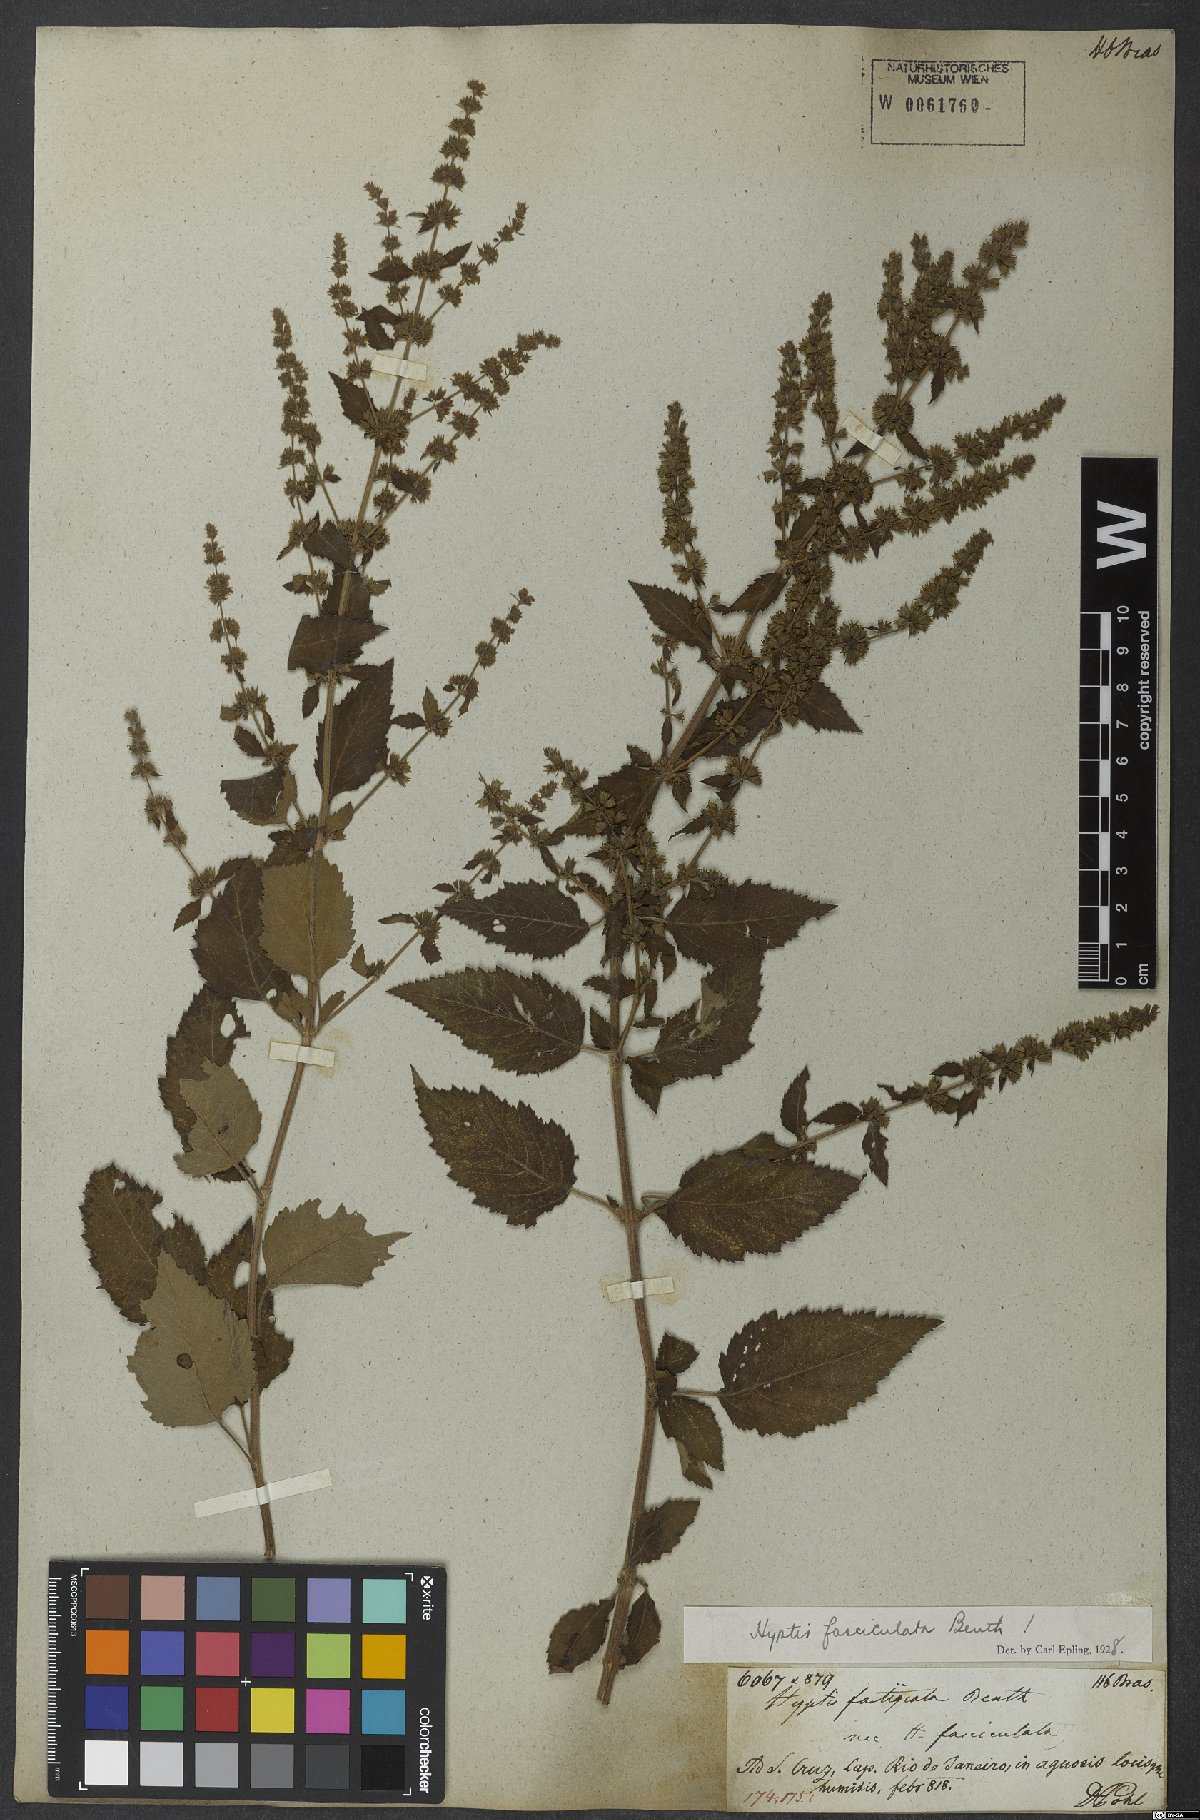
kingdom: Plantae
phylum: Tracheophyta
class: Magnoliopsida
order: Lamiales
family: Lamiaceae
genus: Condea
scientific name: Condea undulata
